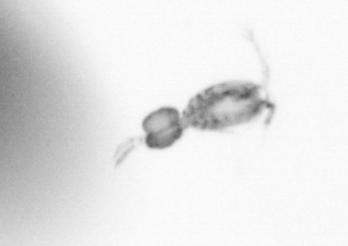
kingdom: Animalia
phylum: Arthropoda
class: Copepoda
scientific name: Copepoda
